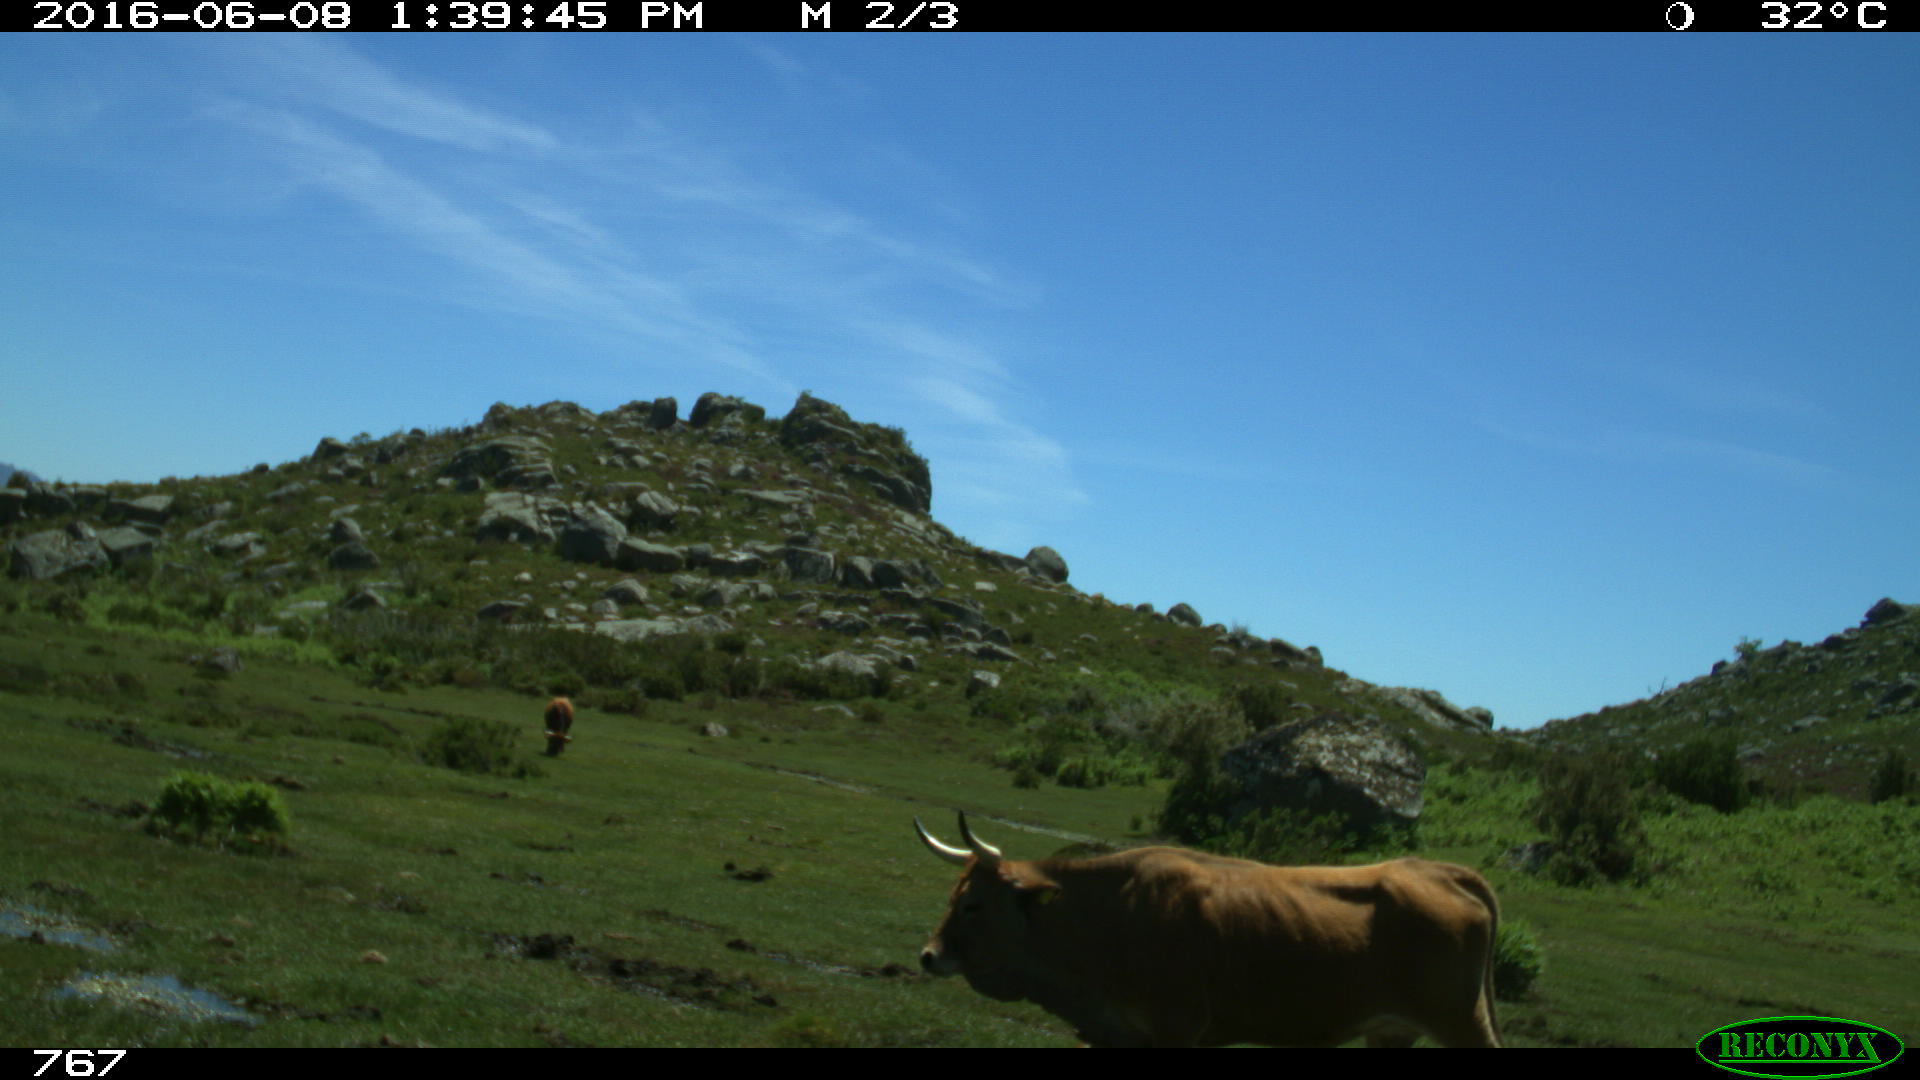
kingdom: Animalia
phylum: Chordata
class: Mammalia
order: Artiodactyla
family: Bovidae
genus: Bos
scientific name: Bos taurus
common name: Domesticated cattle
